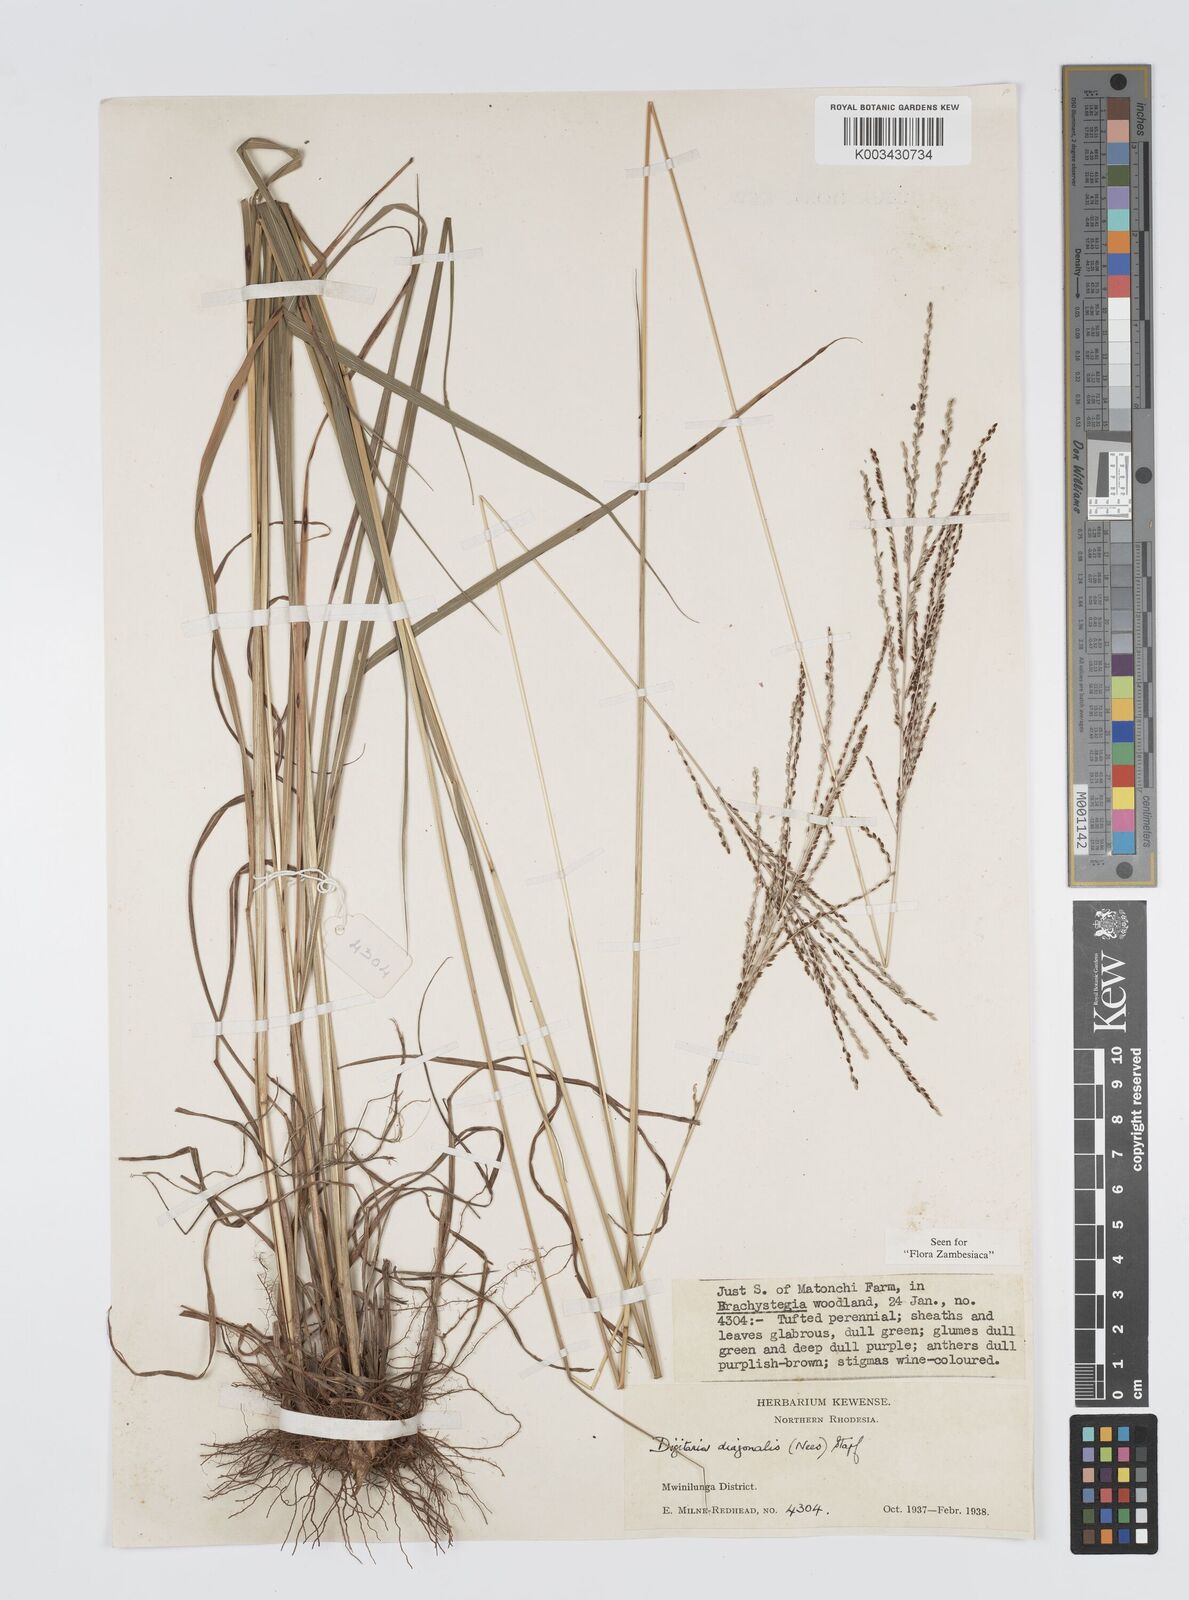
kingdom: Plantae
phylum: Tracheophyta
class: Liliopsida
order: Poales
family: Poaceae
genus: Digitaria
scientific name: Digitaria diagonalis
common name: Brown-seed finger grass
